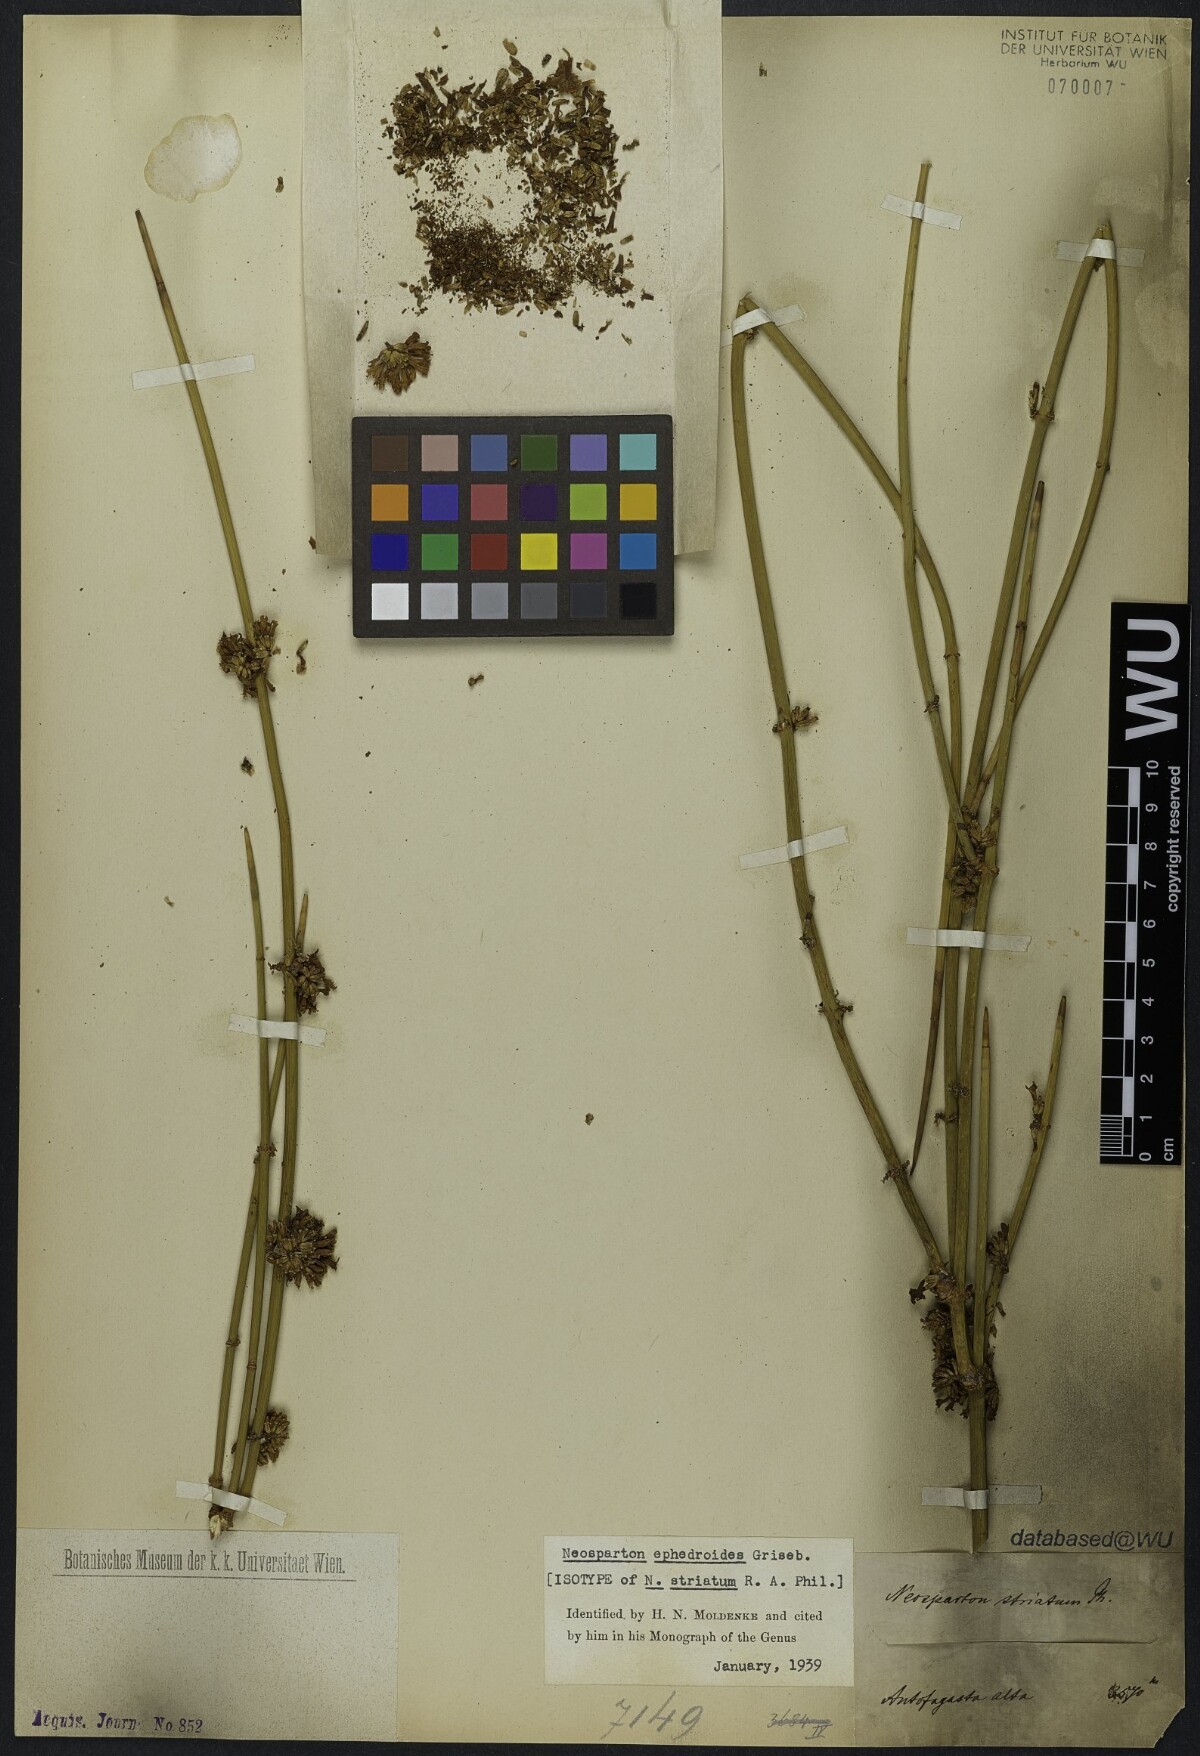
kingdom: Plantae
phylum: Tracheophyta
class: Magnoliopsida
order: Lamiales
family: Verbenaceae
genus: Neosparton
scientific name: Neosparton ephedroides
